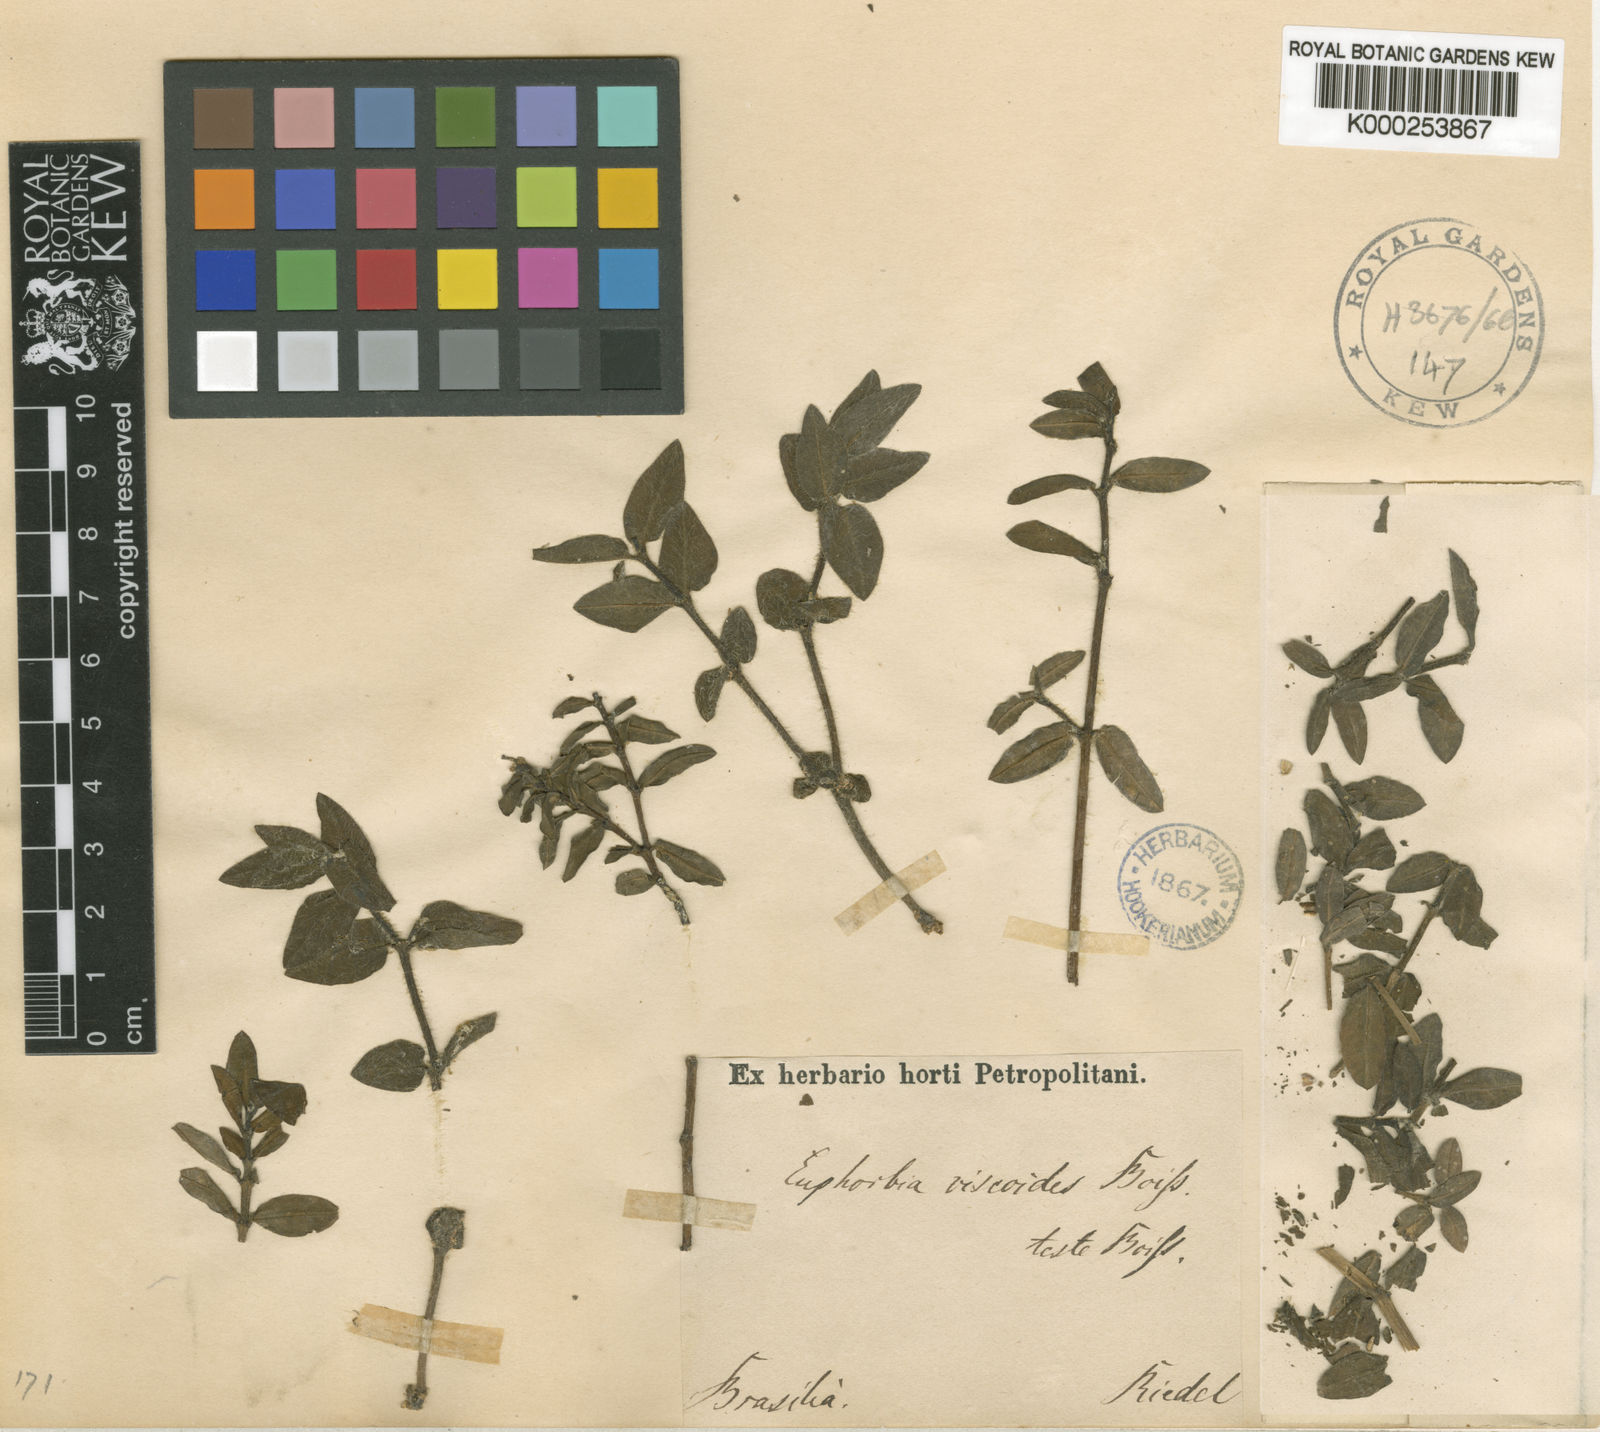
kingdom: Plantae
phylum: Tracheophyta
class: Magnoliopsida
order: Malpighiales
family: Euphorbiaceae
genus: Euphorbia
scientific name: Euphorbia viscoides
